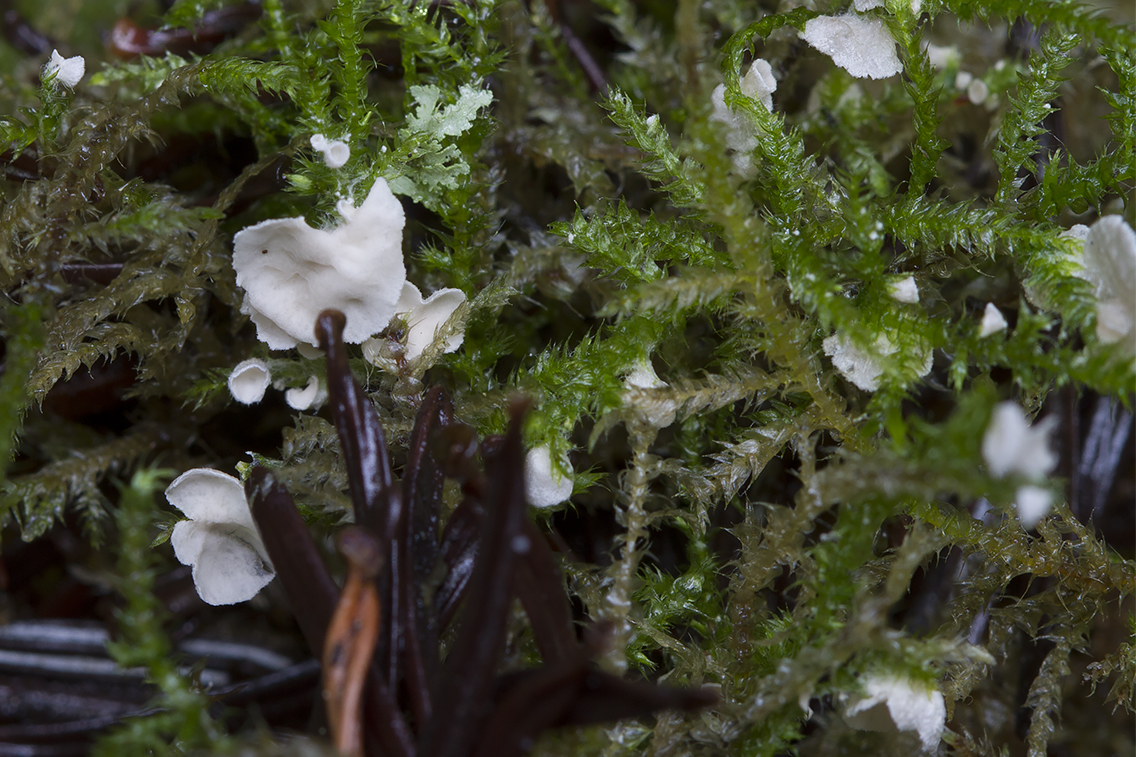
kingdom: Fungi
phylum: Basidiomycota
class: Agaricomycetes
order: Agaricales
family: Hygrophoraceae
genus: Arrhenia
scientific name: Arrhenia retiruga
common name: lille fontænehat
